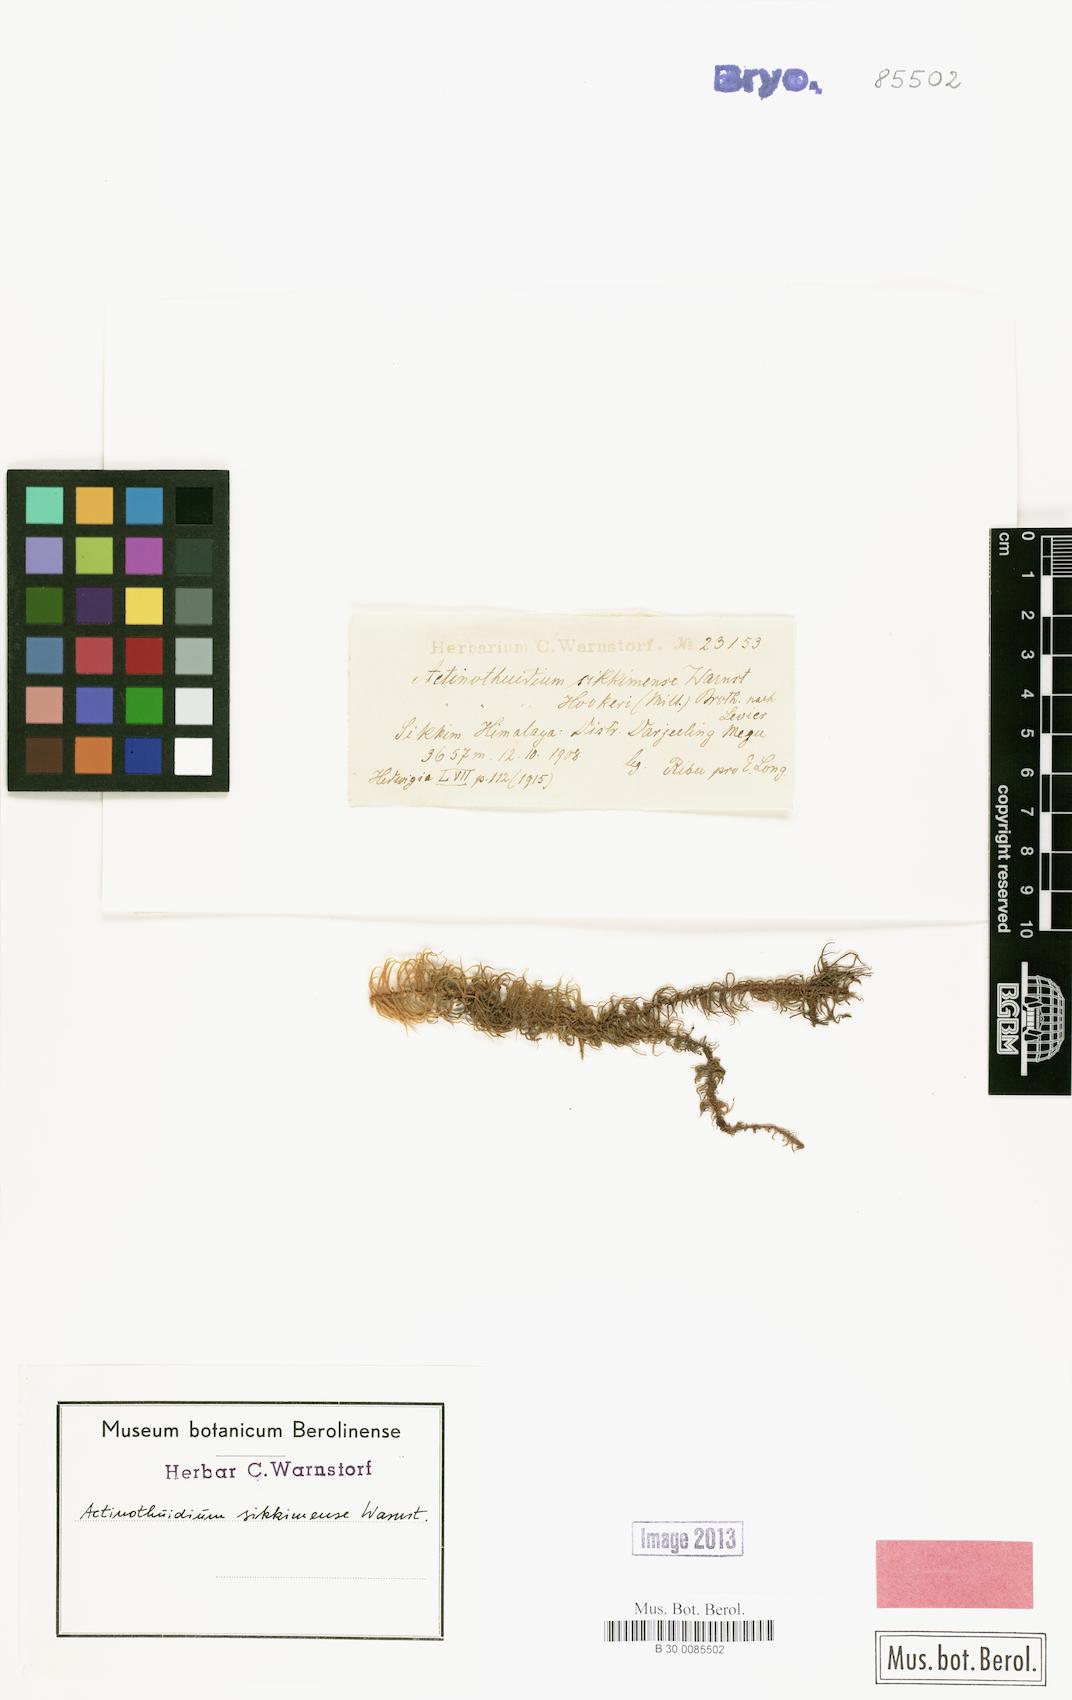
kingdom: Plantae
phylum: Bryophyta
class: Bryopsida
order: Hypnales
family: Helodiaceae
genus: Actinothuidium
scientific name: Actinothuidium hookeri
